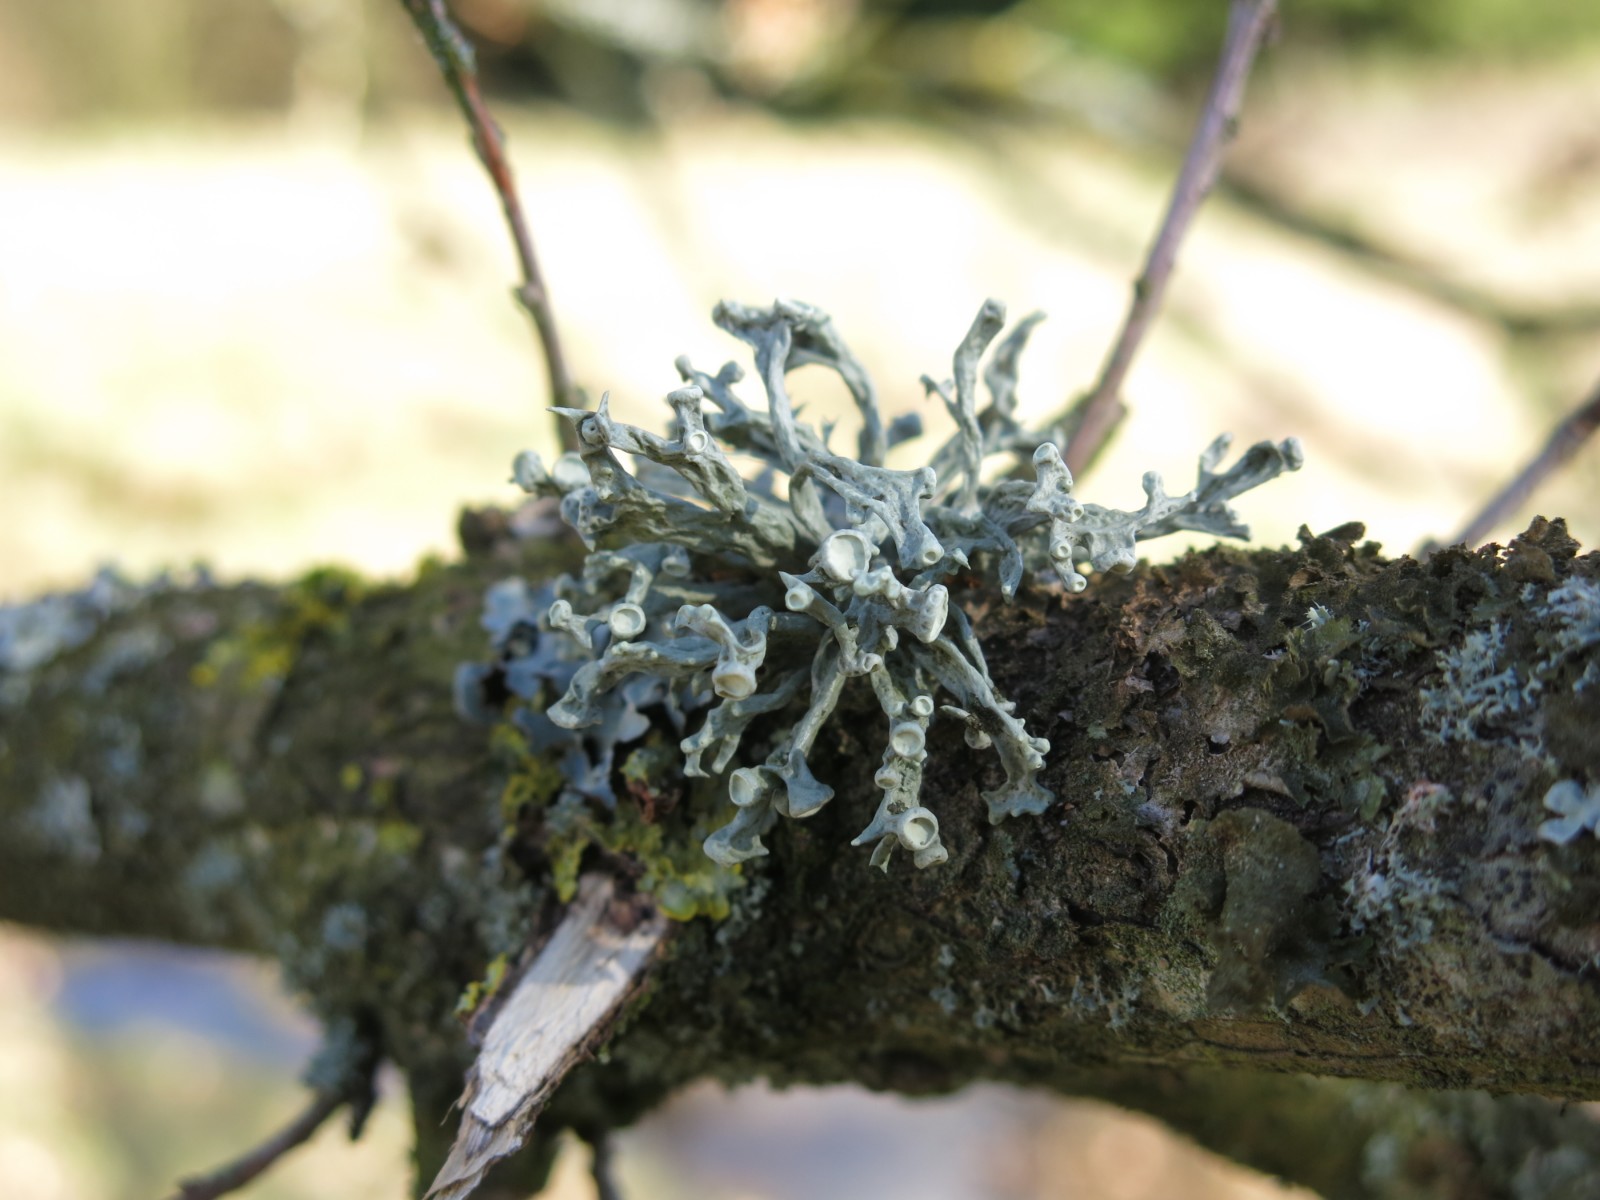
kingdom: Fungi
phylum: Ascomycota
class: Lecanoromycetes
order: Lecanorales
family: Ramalinaceae
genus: Ramalina
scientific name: Ramalina fastigiata
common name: tue-grenlav
